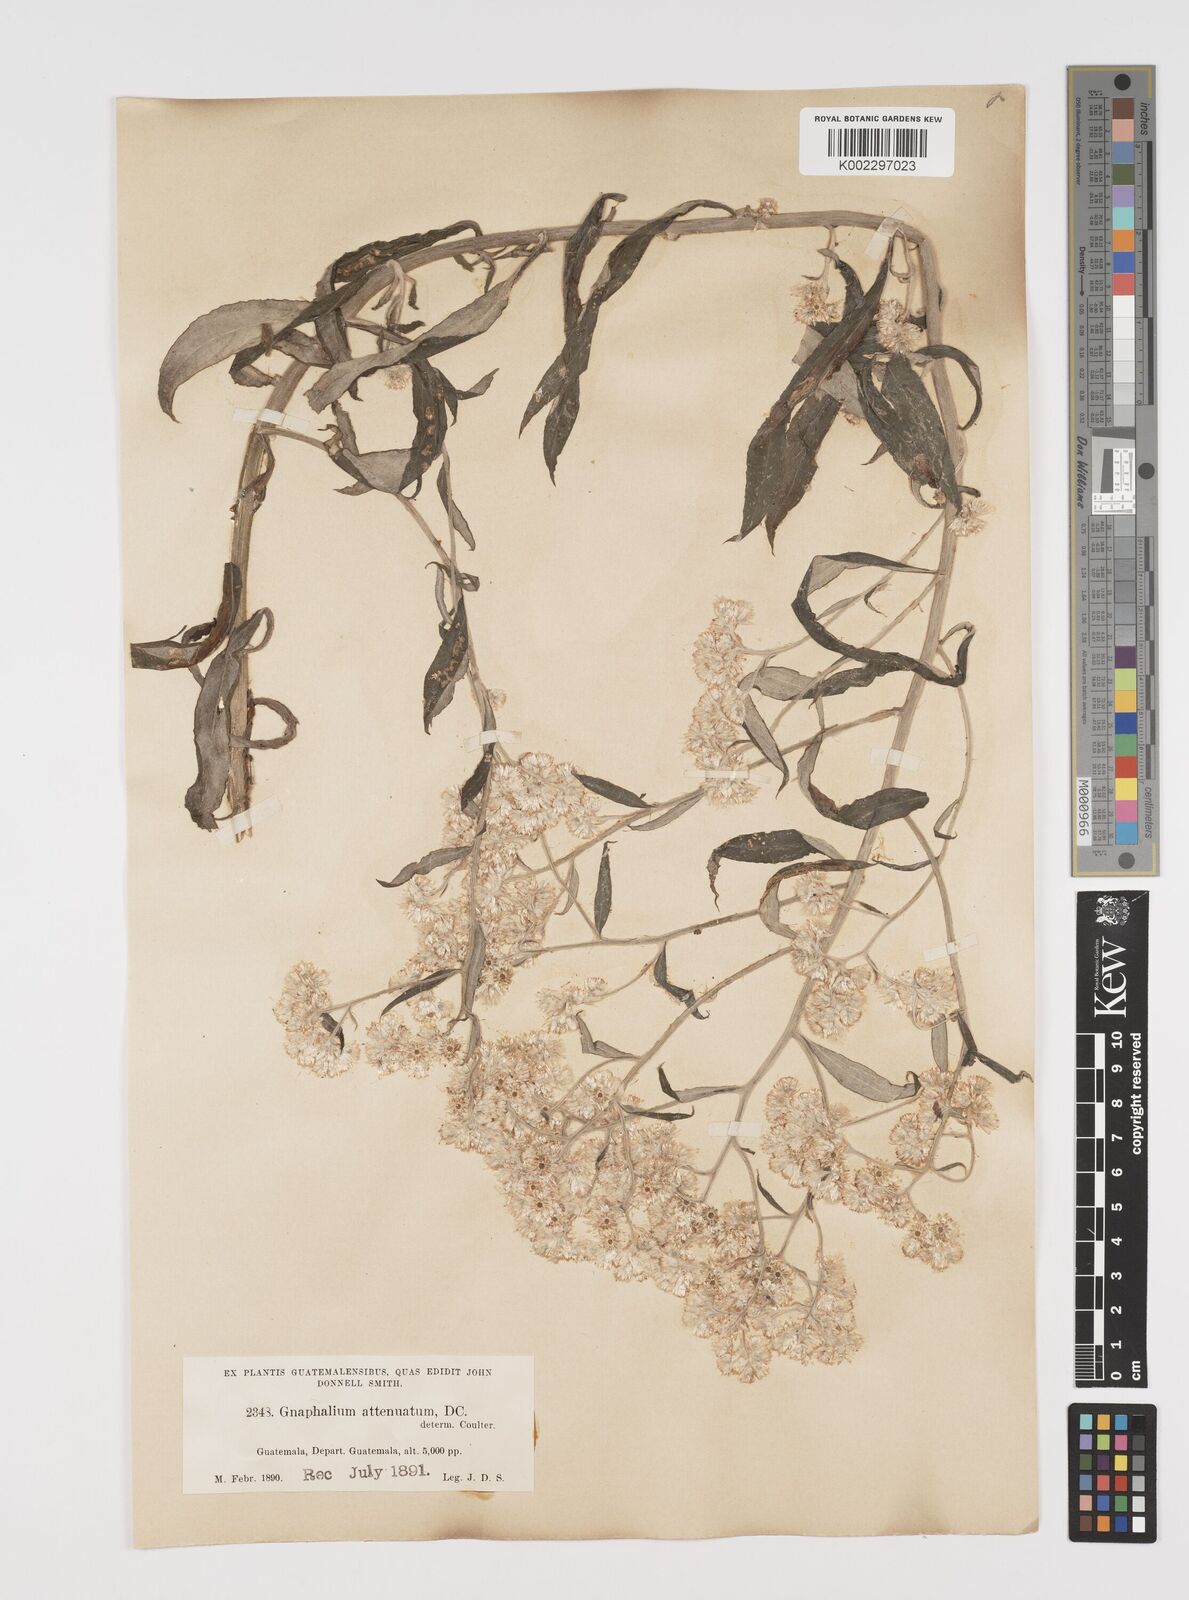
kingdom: Plantae
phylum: Tracheophyta
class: Magnoliopsida
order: Asterales
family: Asteraceae
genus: Pseudognaphalium
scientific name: Pseudognaphalium attenuatum
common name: Tapered cudweed
